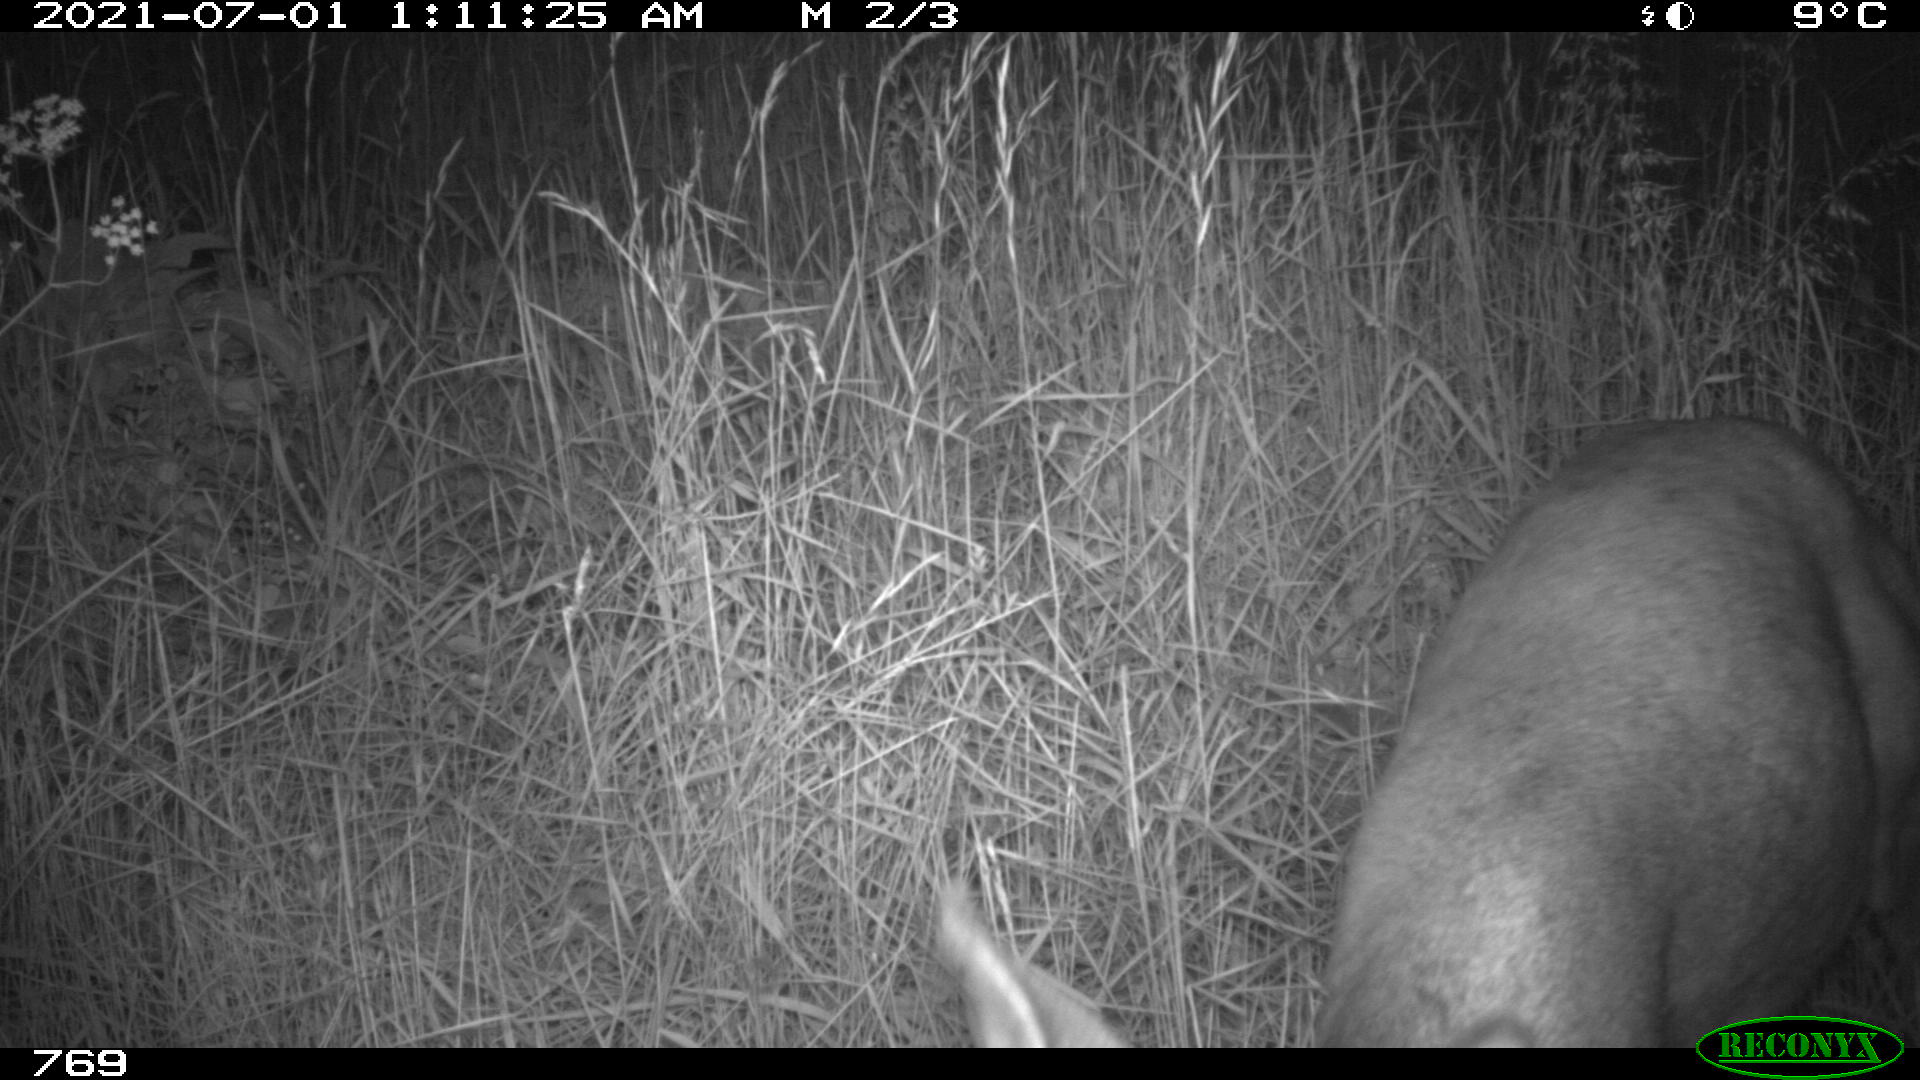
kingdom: Animalia
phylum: Chordata
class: Mammalia
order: Artiodactyla
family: Cervidae
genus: Capreolus
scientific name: Capreolus capreolus
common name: Western roe deer
